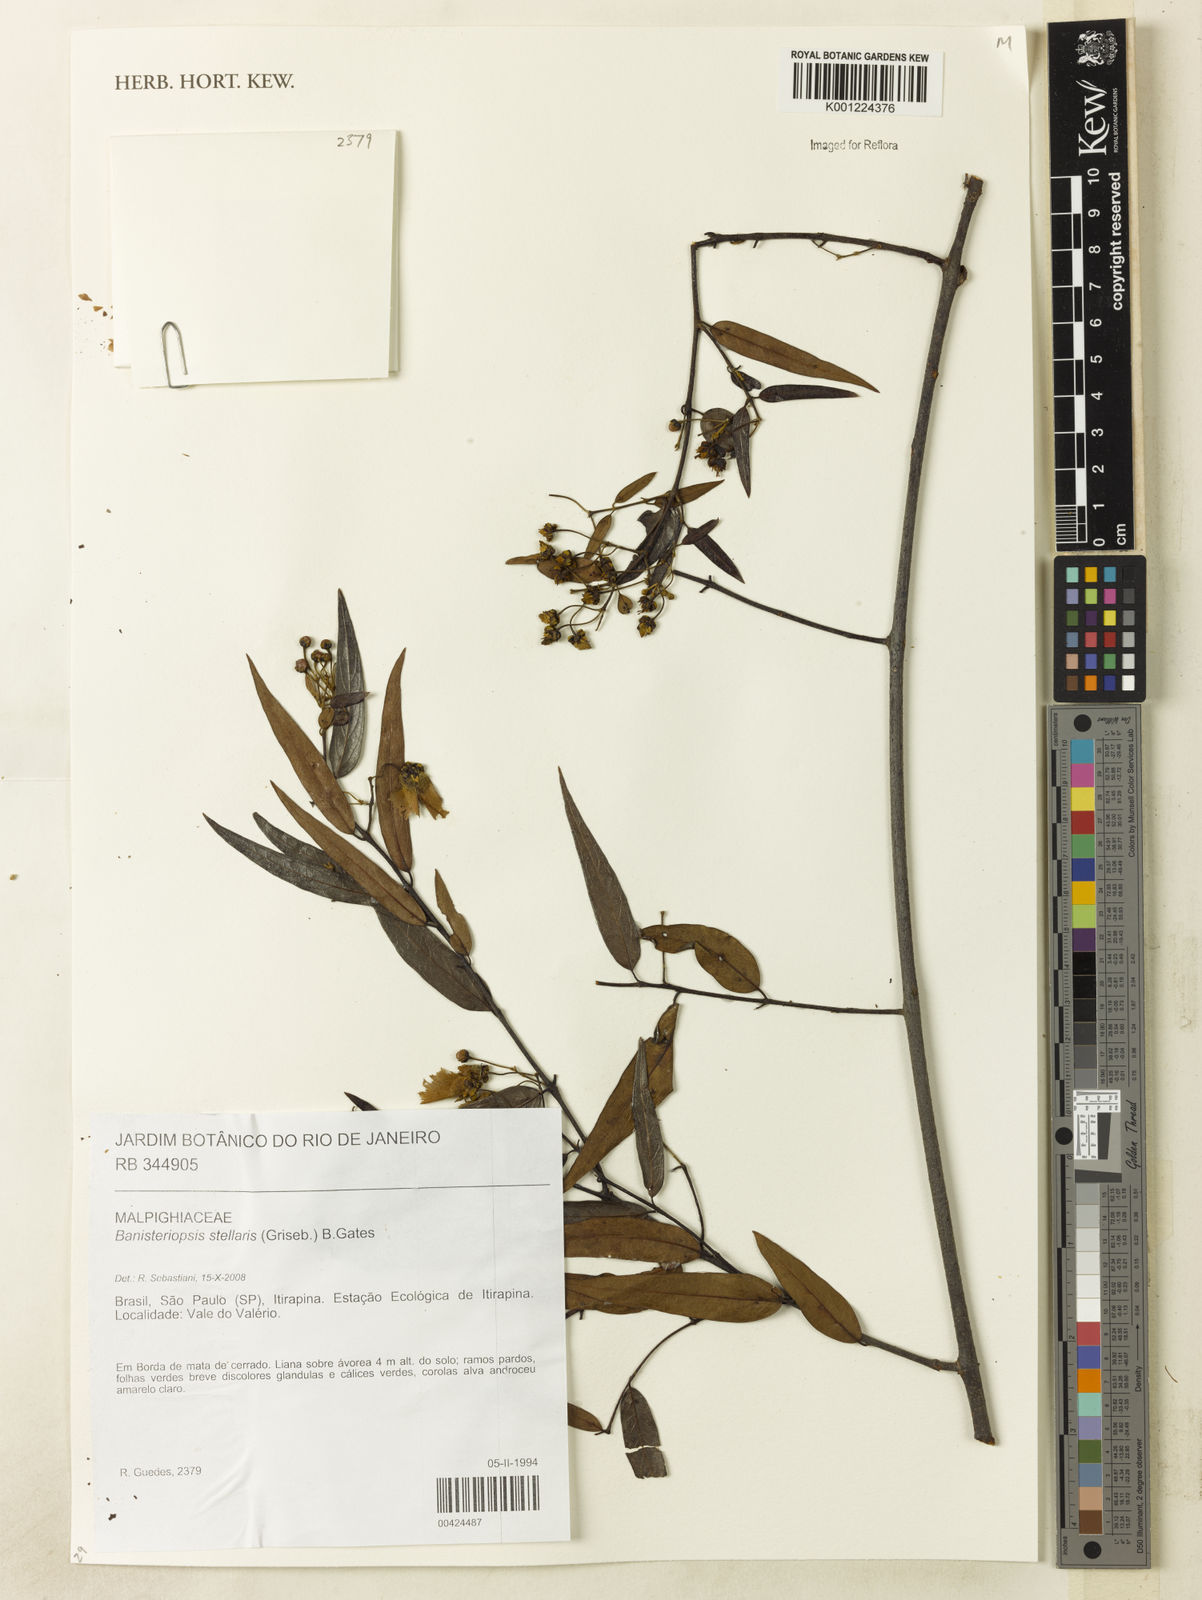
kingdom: Plantae
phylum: Tracheophyta
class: Magnoliopsida
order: Malpighiales
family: Malpighiaceae
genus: Banisteriopsis
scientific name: Banisteriopsis stellaris
